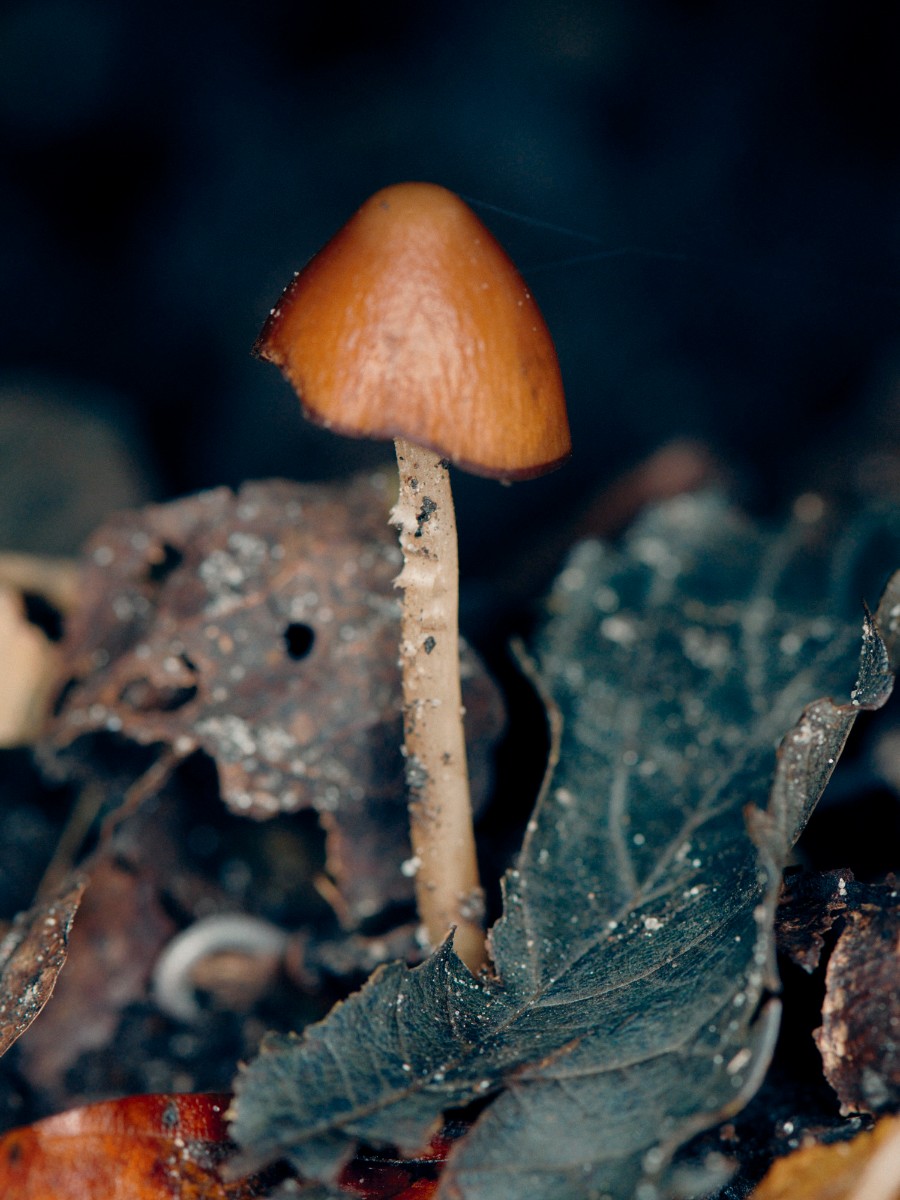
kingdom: Fungi
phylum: Basidiomycota
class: Agaricomycetes
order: Agaricales
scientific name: Agaricales
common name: champignonordenen
